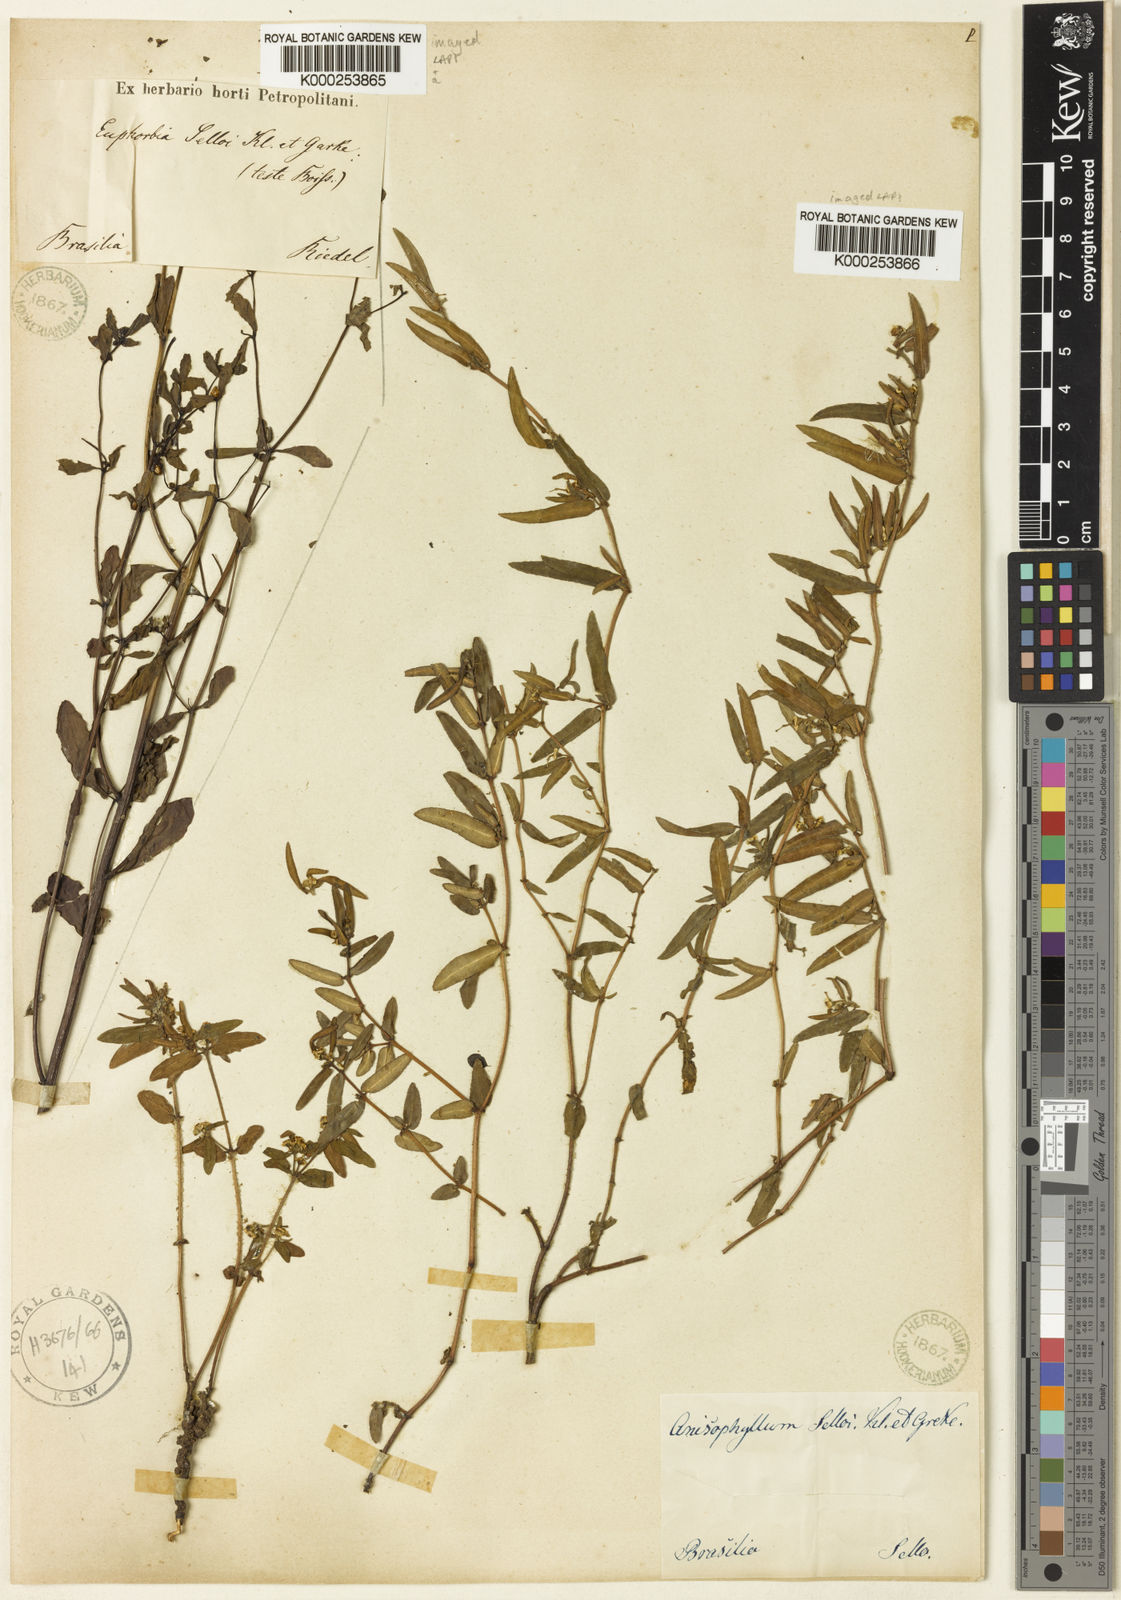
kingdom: Plantae
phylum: Tracheophyta
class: Magnoliopsida
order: Malpighiales
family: Euphorbiaceae
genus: Euphorbia
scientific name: Euphorbia selloi
